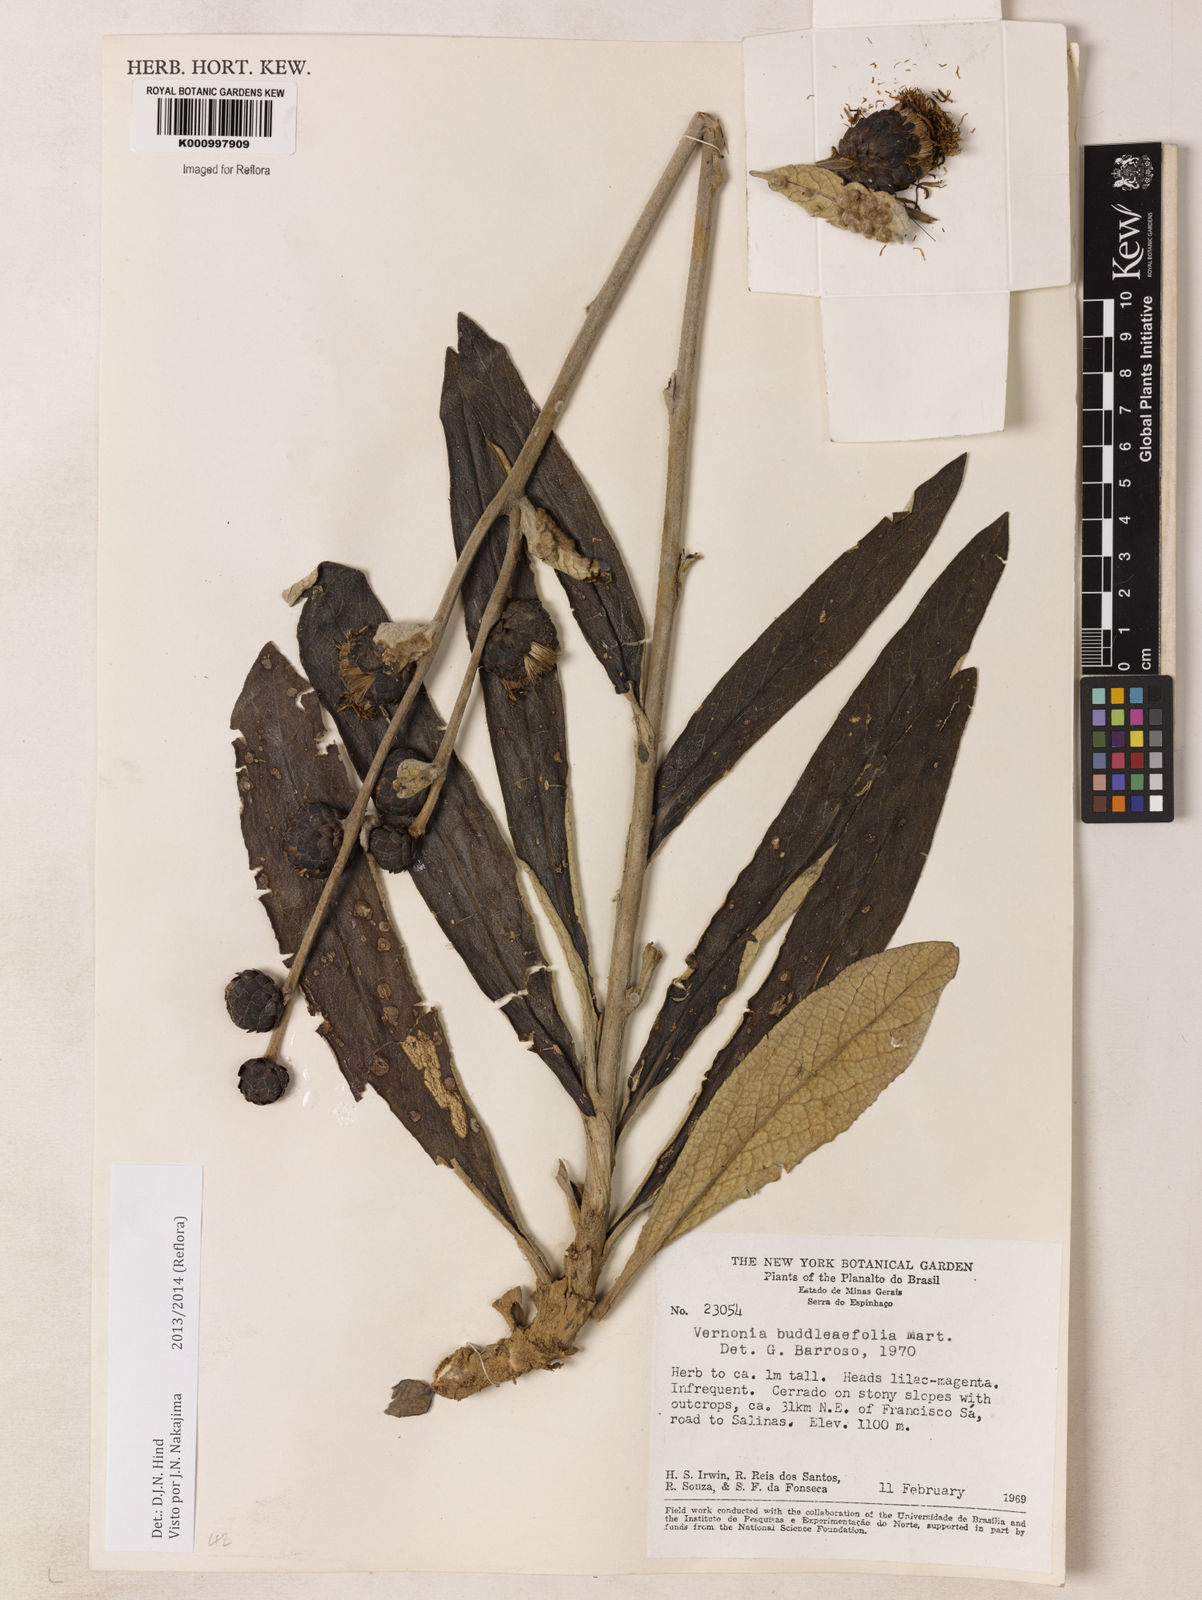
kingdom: Plantae
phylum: Tracheophyta
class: Magnoliopsida
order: Asterales
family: Asteraceae
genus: Lessingianthus
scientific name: Lessingianthus buddlejifolius
